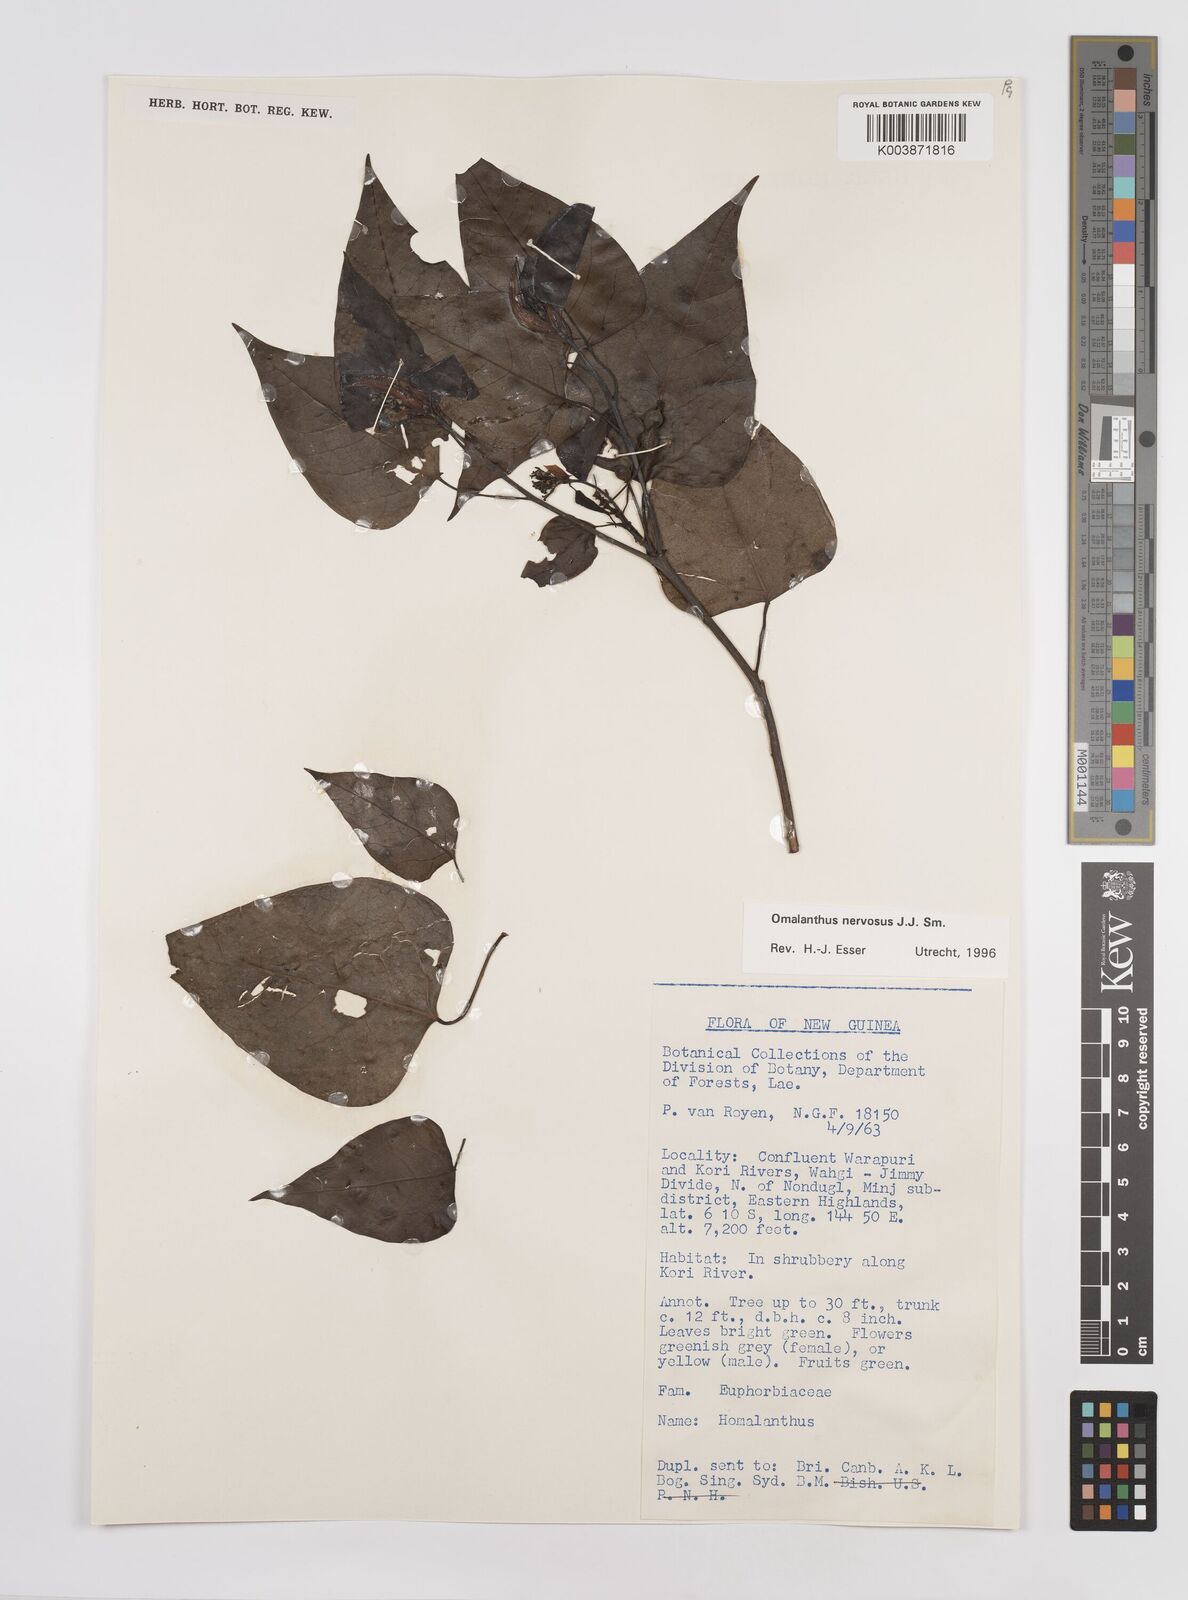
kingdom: Plantae
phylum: Tracheophyta
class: Magnoliopsida
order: Malpighiales
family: Euphorbiaceae
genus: Homalanthus
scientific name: Homalanthus nervosus
